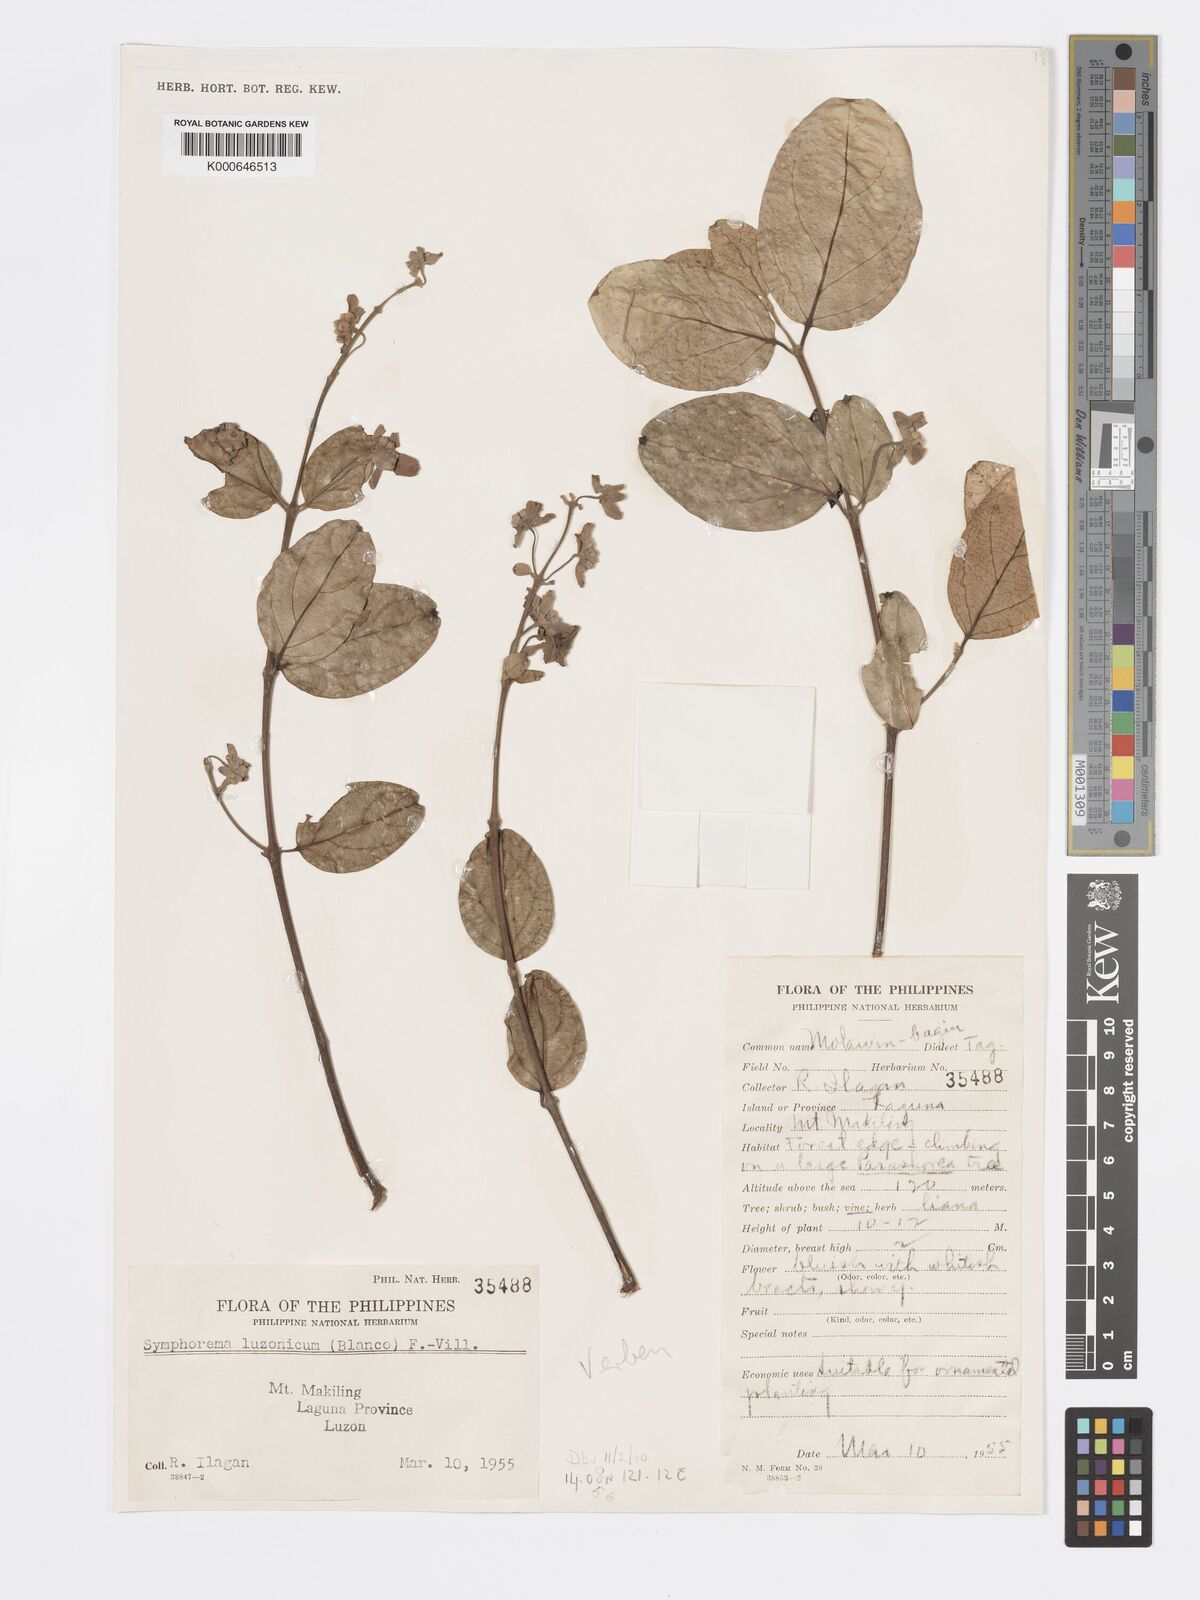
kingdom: Plantae
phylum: Tracheophyta
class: Magnoliopsida
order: Lamiales
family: Lamiaceae
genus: Symphorema
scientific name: Symphorema luzonicum
